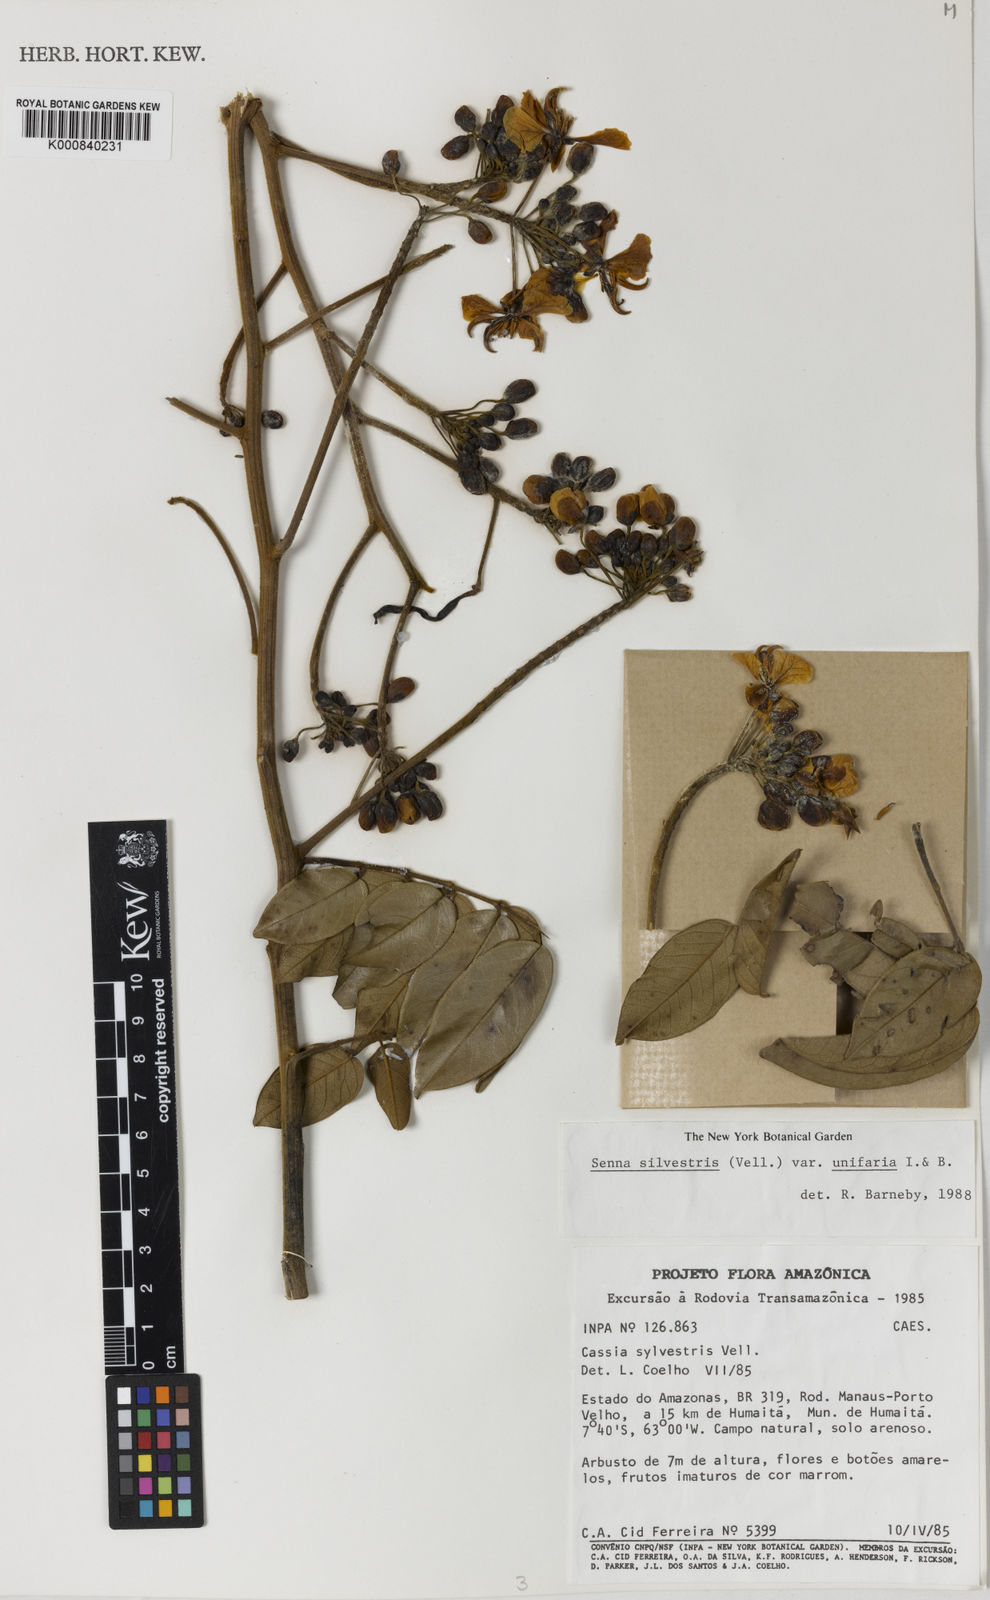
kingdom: Plantae
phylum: Tracheophyta
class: Magnoliopsida
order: Fabales
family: Fabaceae
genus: Senna
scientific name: Senna silvestris
